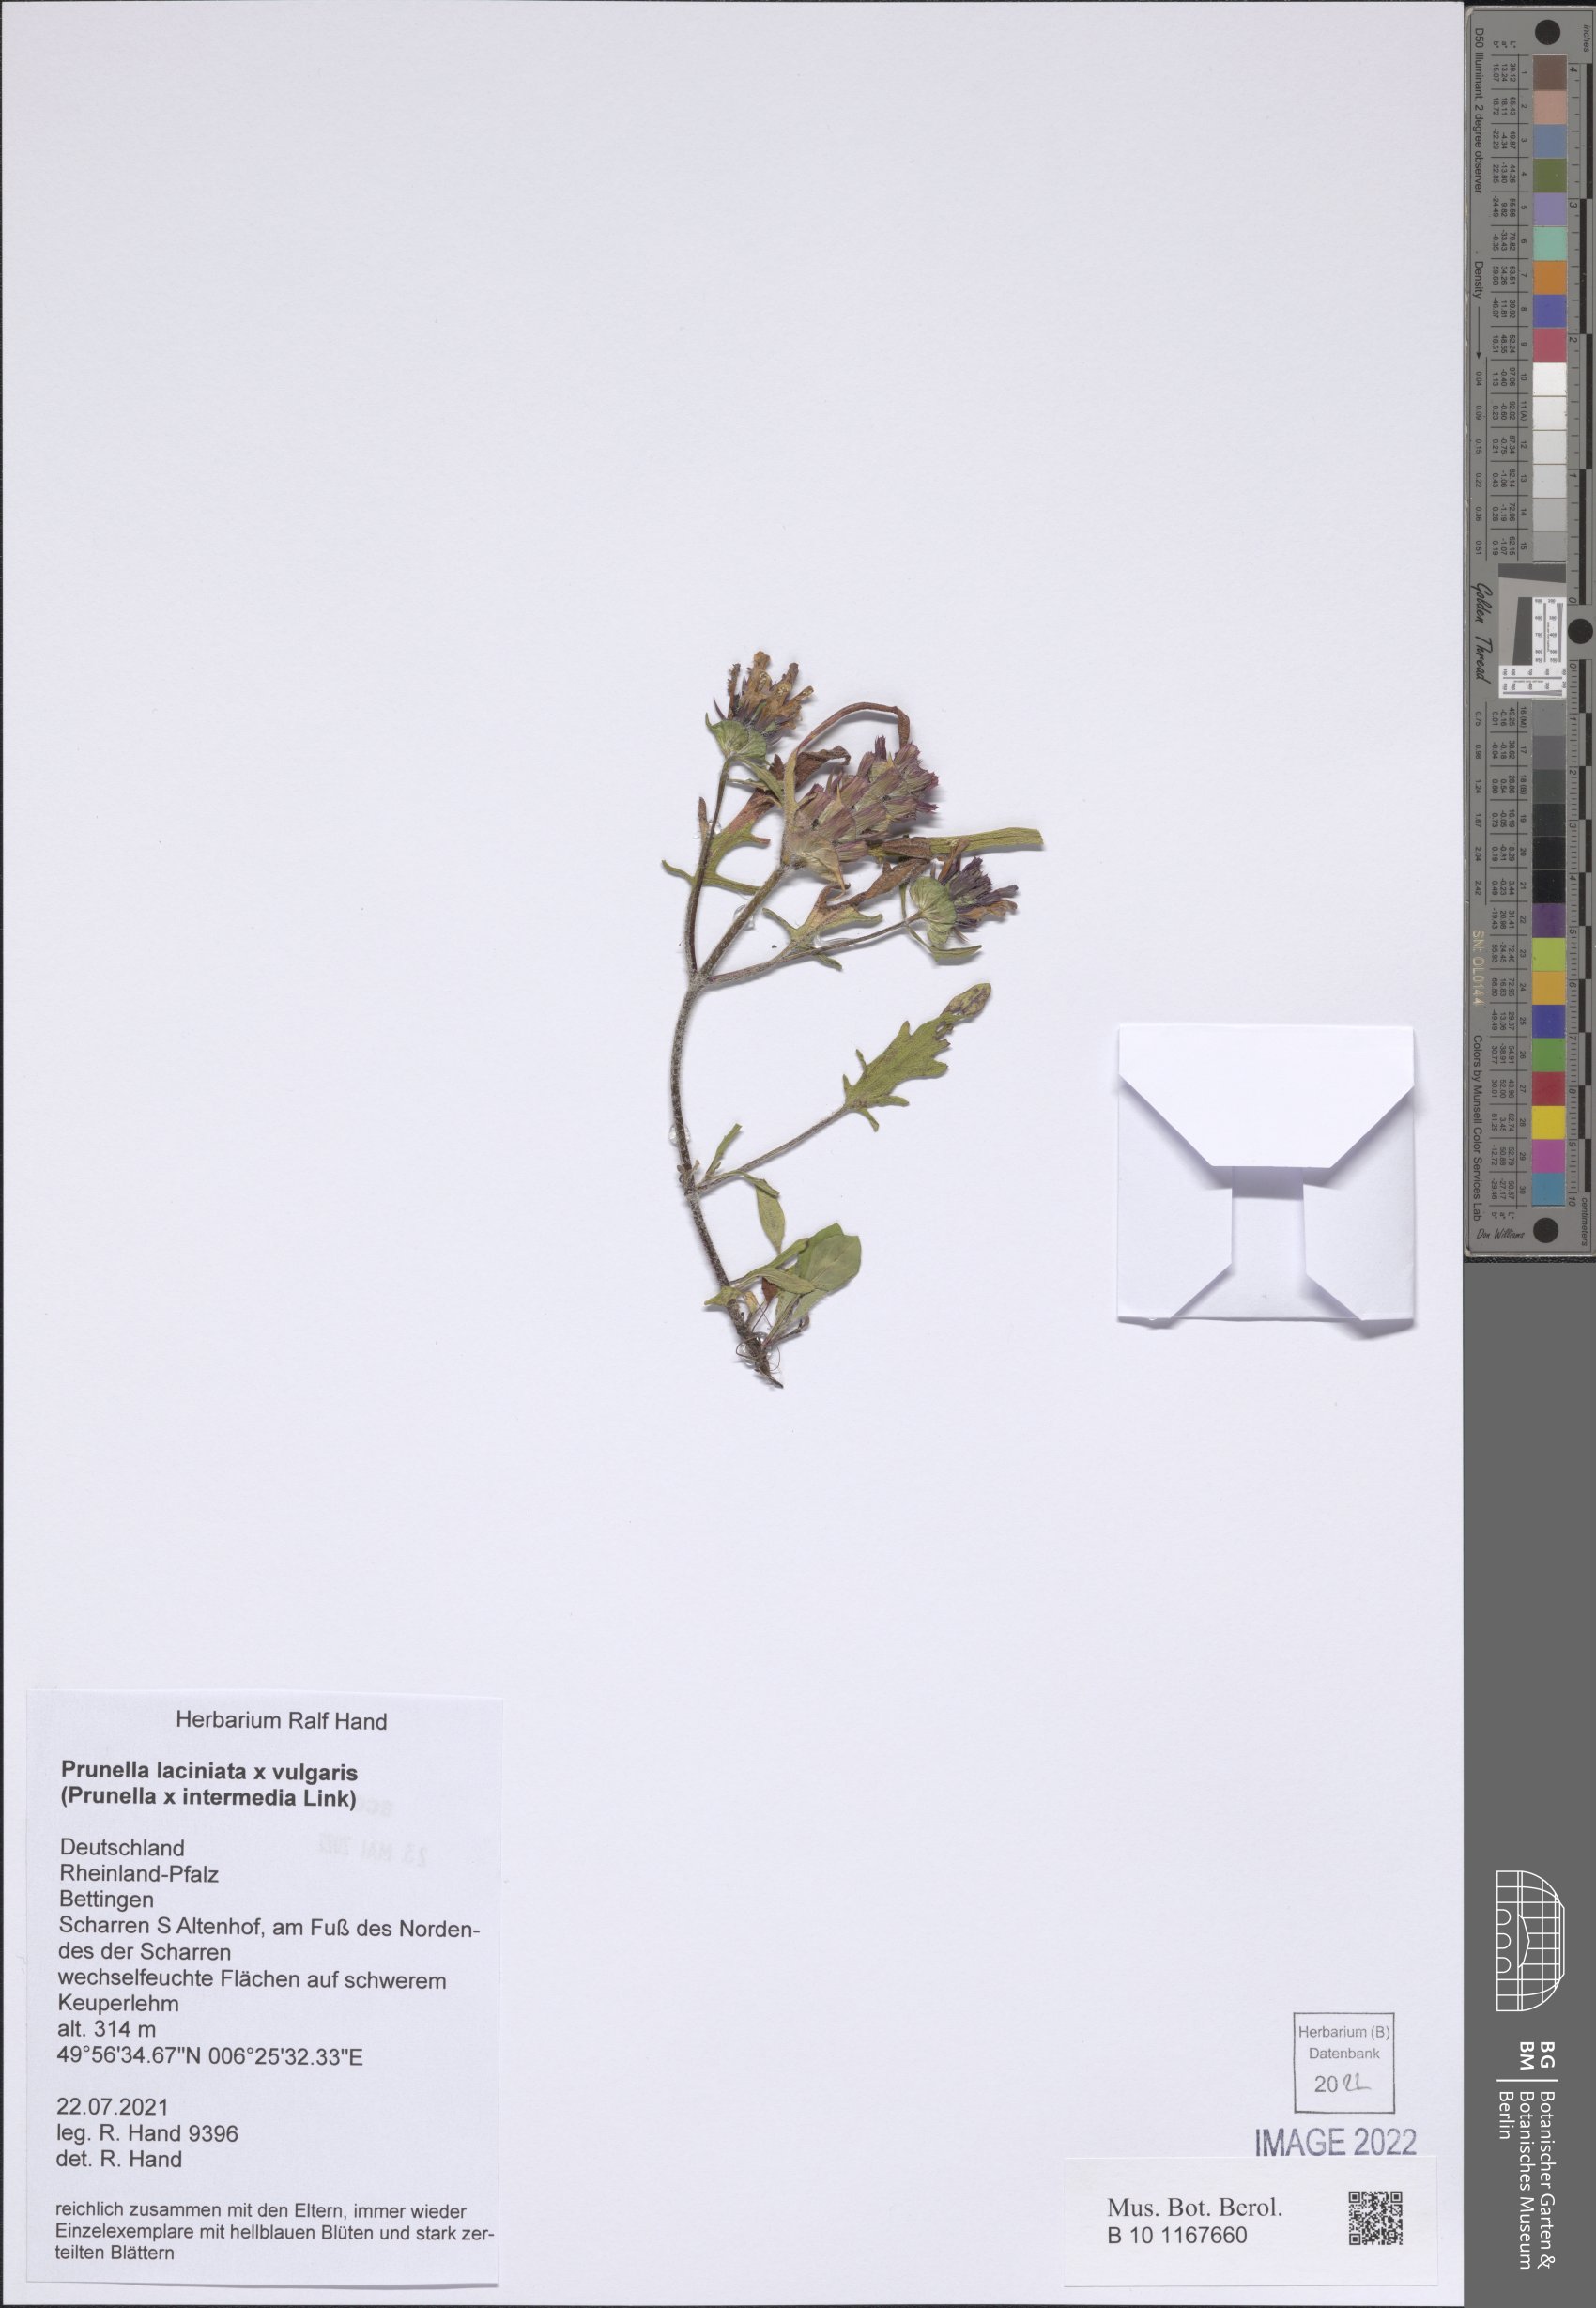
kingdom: Plantae
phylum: Tracheophyta
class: Magnoliopsida
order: Lamiales
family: Lamiaceae
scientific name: Lamiaceae
